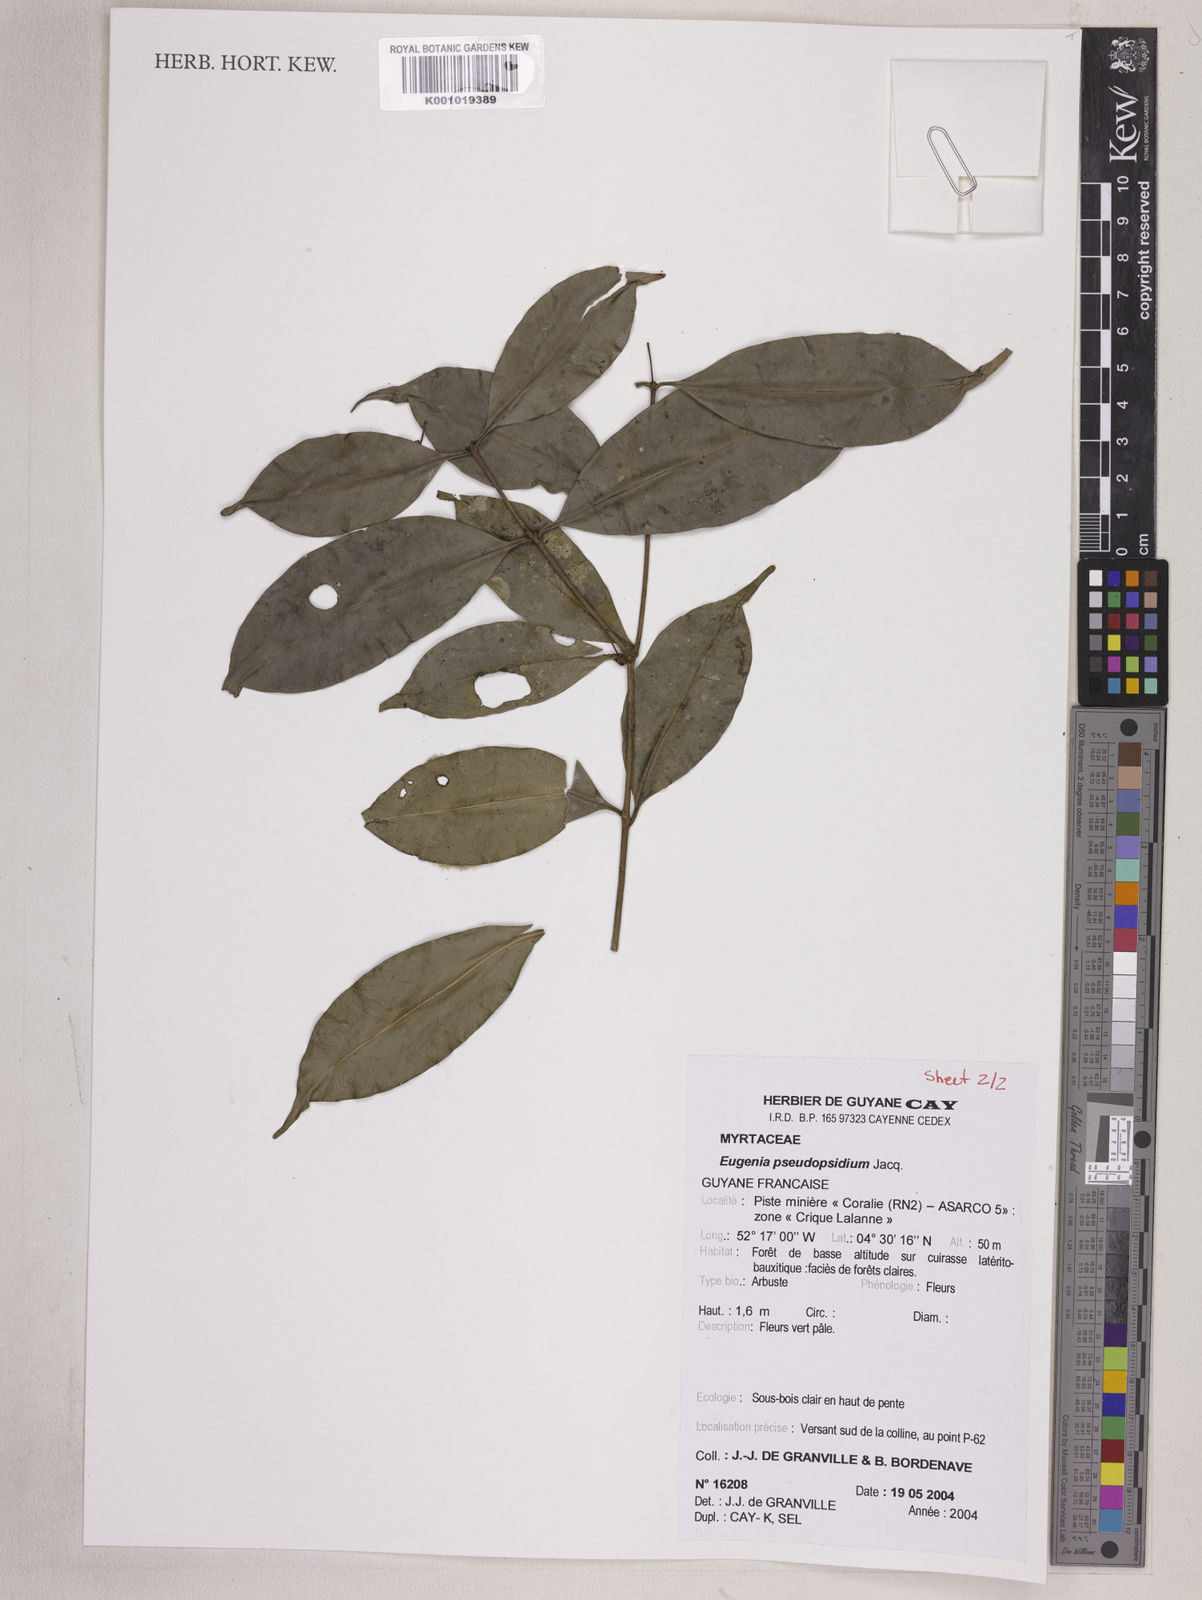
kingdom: Plantae
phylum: Tracheophyta
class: Magnoliopsida
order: Myrtales
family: Myrtaceae
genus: Eugenia
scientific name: Eugenia pseudopsidium
